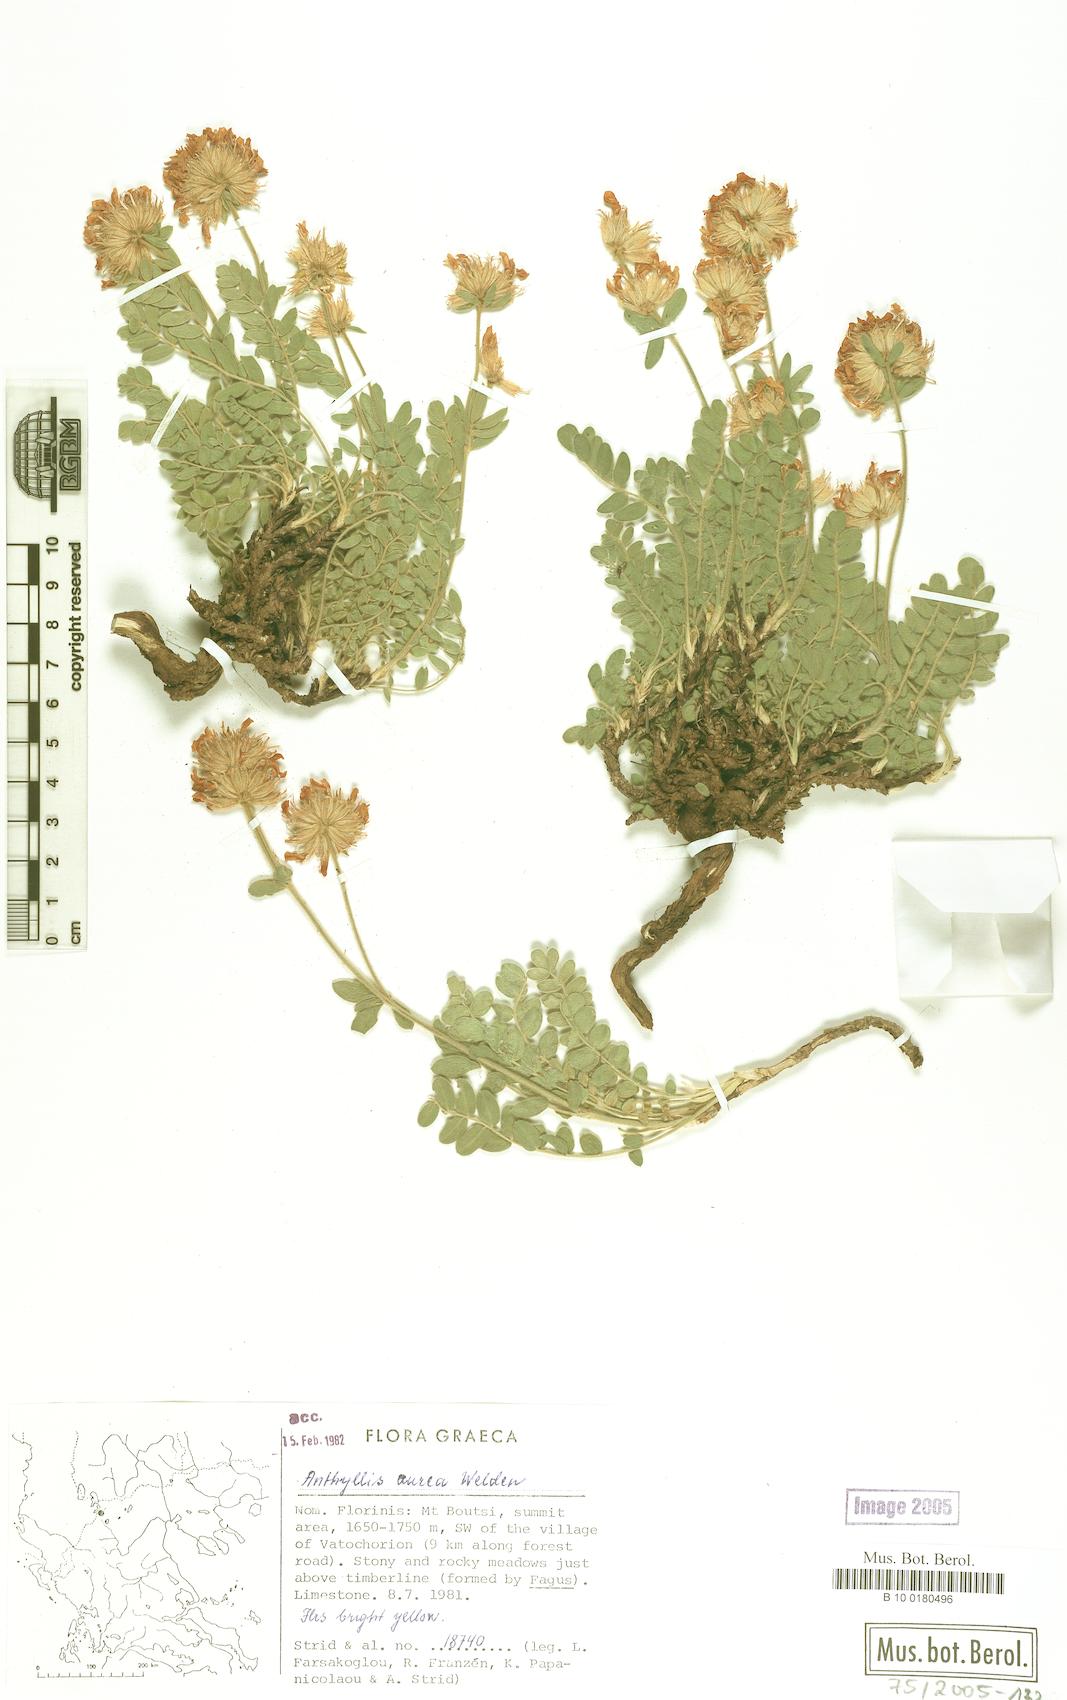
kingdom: Plantae
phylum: Tracheophyta
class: Magnoliopsida
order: Fabales
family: Fabaceae
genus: Anthyllis
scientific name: Anthyllis aurea
